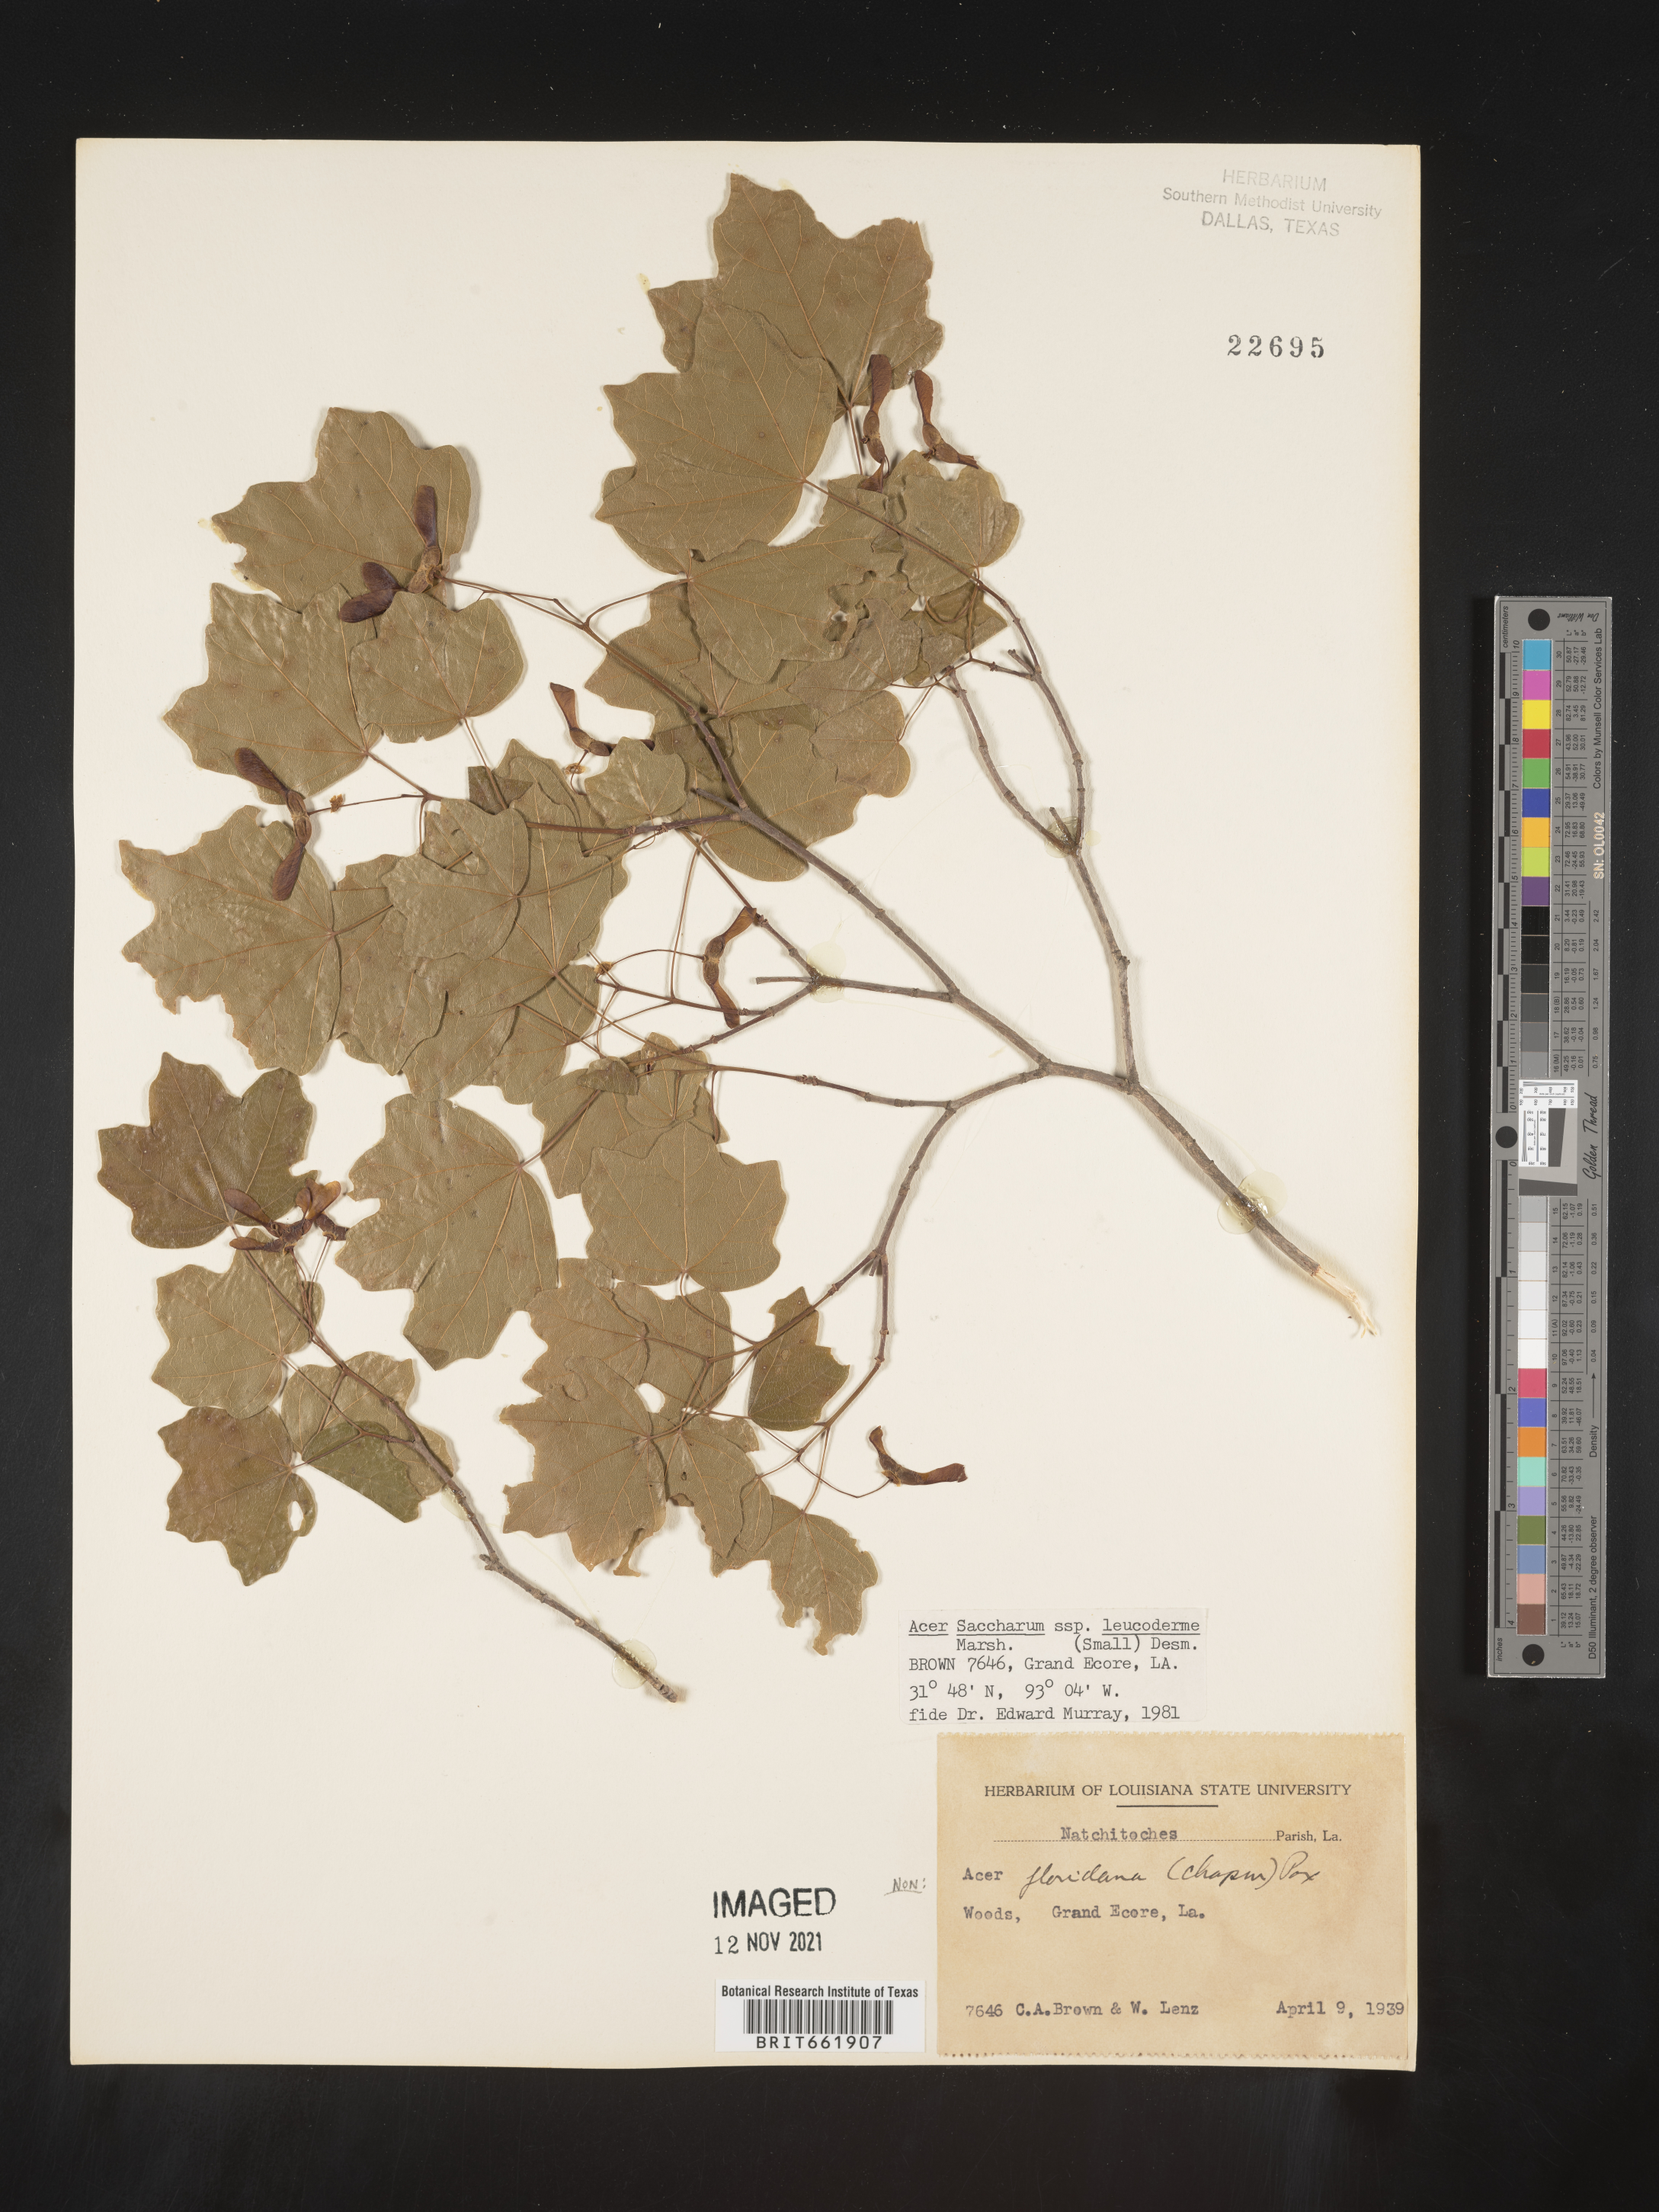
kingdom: Plantae
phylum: Tracheophyta
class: Magnoliopsida
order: Sapindales
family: Sapindaceae
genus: Acer
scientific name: Acer leucoderme
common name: Chalk maple
